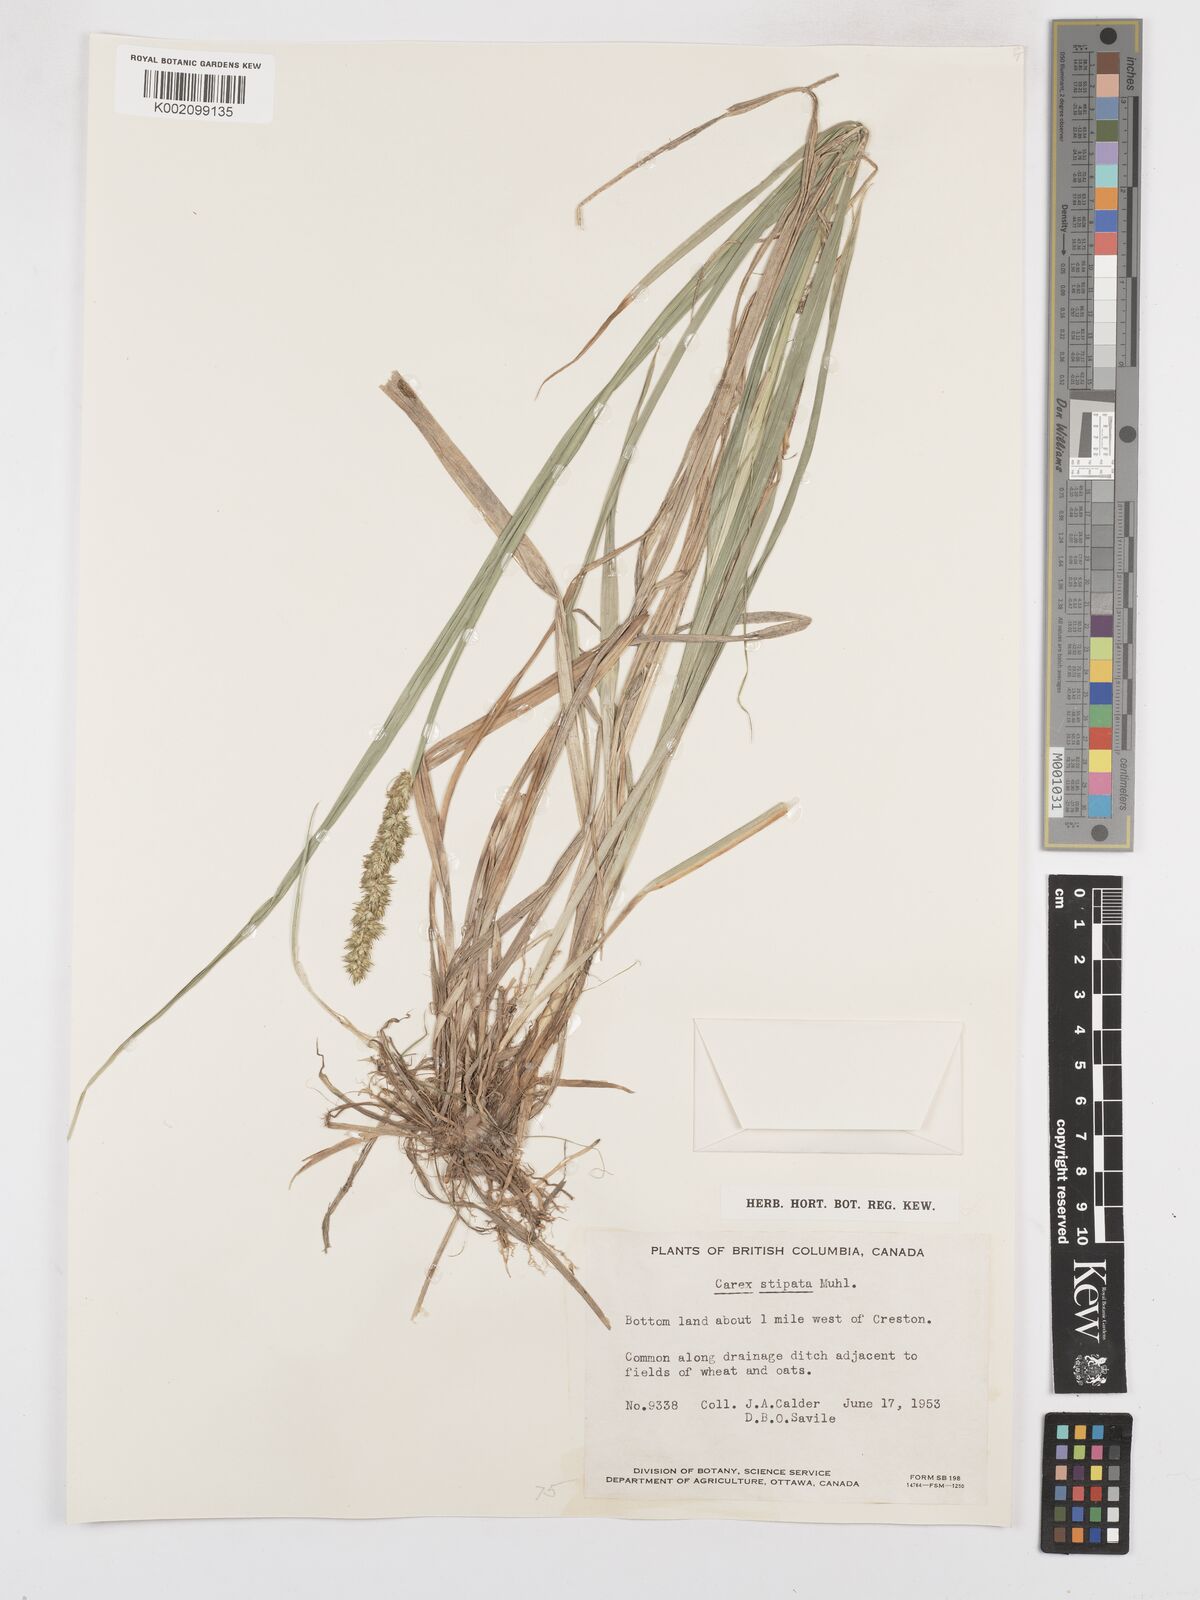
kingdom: Plantae
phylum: Tracheophyta
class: Liliopsida
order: Poales
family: Cyperaceae
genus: Carex
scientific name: Carex stipata
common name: Awl-fruited sedge
